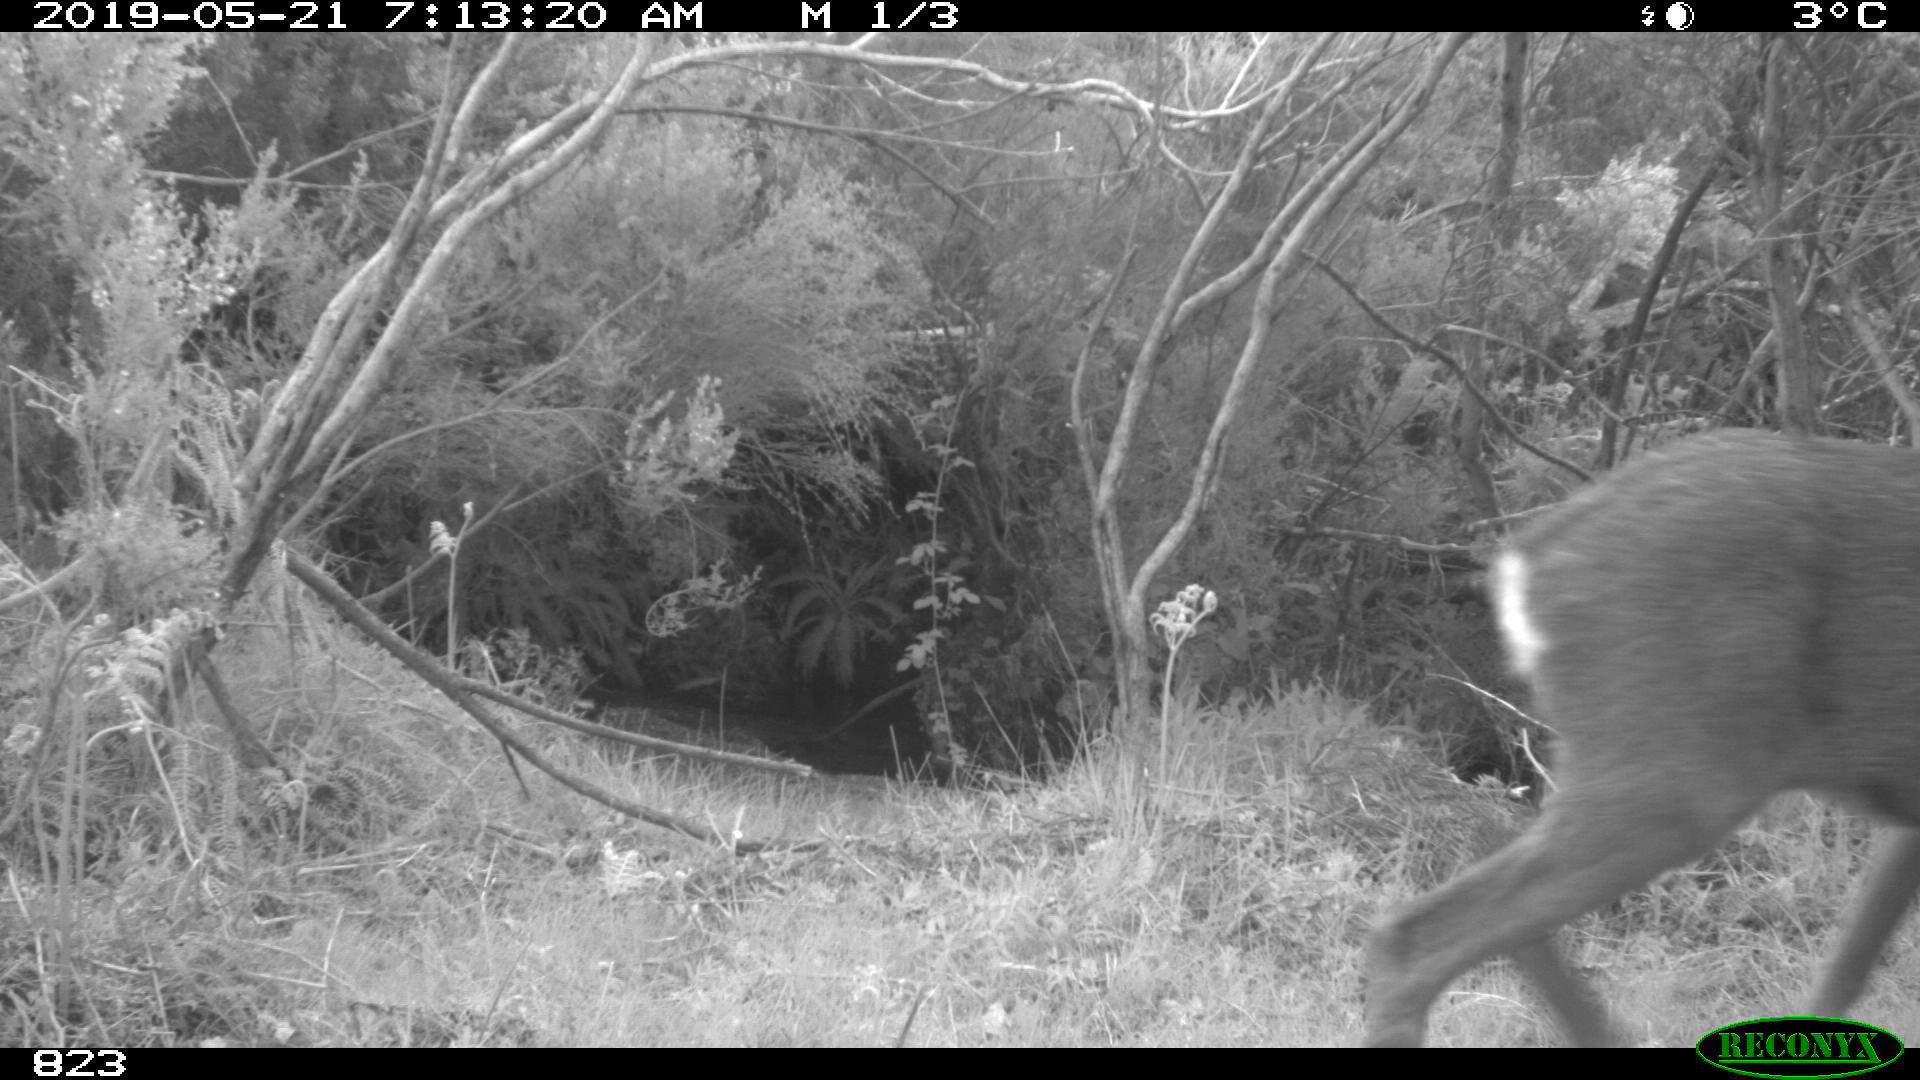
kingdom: Animalia
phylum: Chordata
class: Mammalia
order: Artiodactyla
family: Cervidae
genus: Capreolus
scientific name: Capreolus capreolus
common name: Western roe deer
